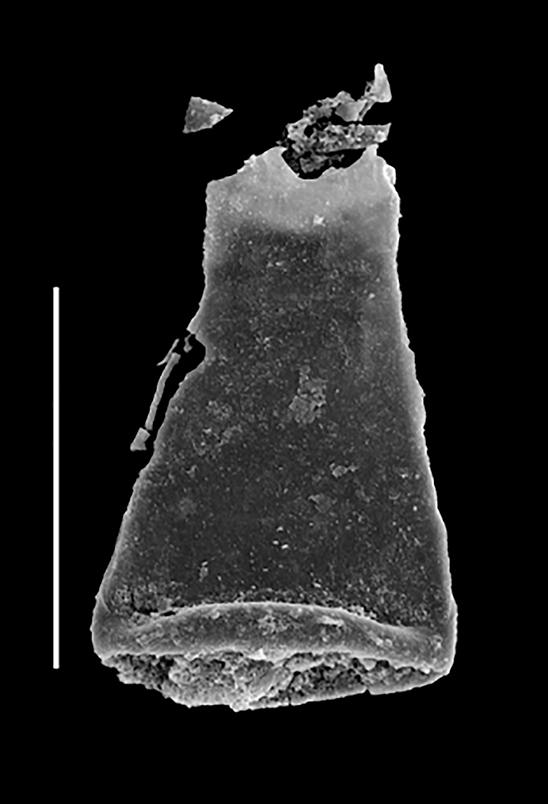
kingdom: Animalia
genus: Euconochitina
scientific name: Euconochitina
